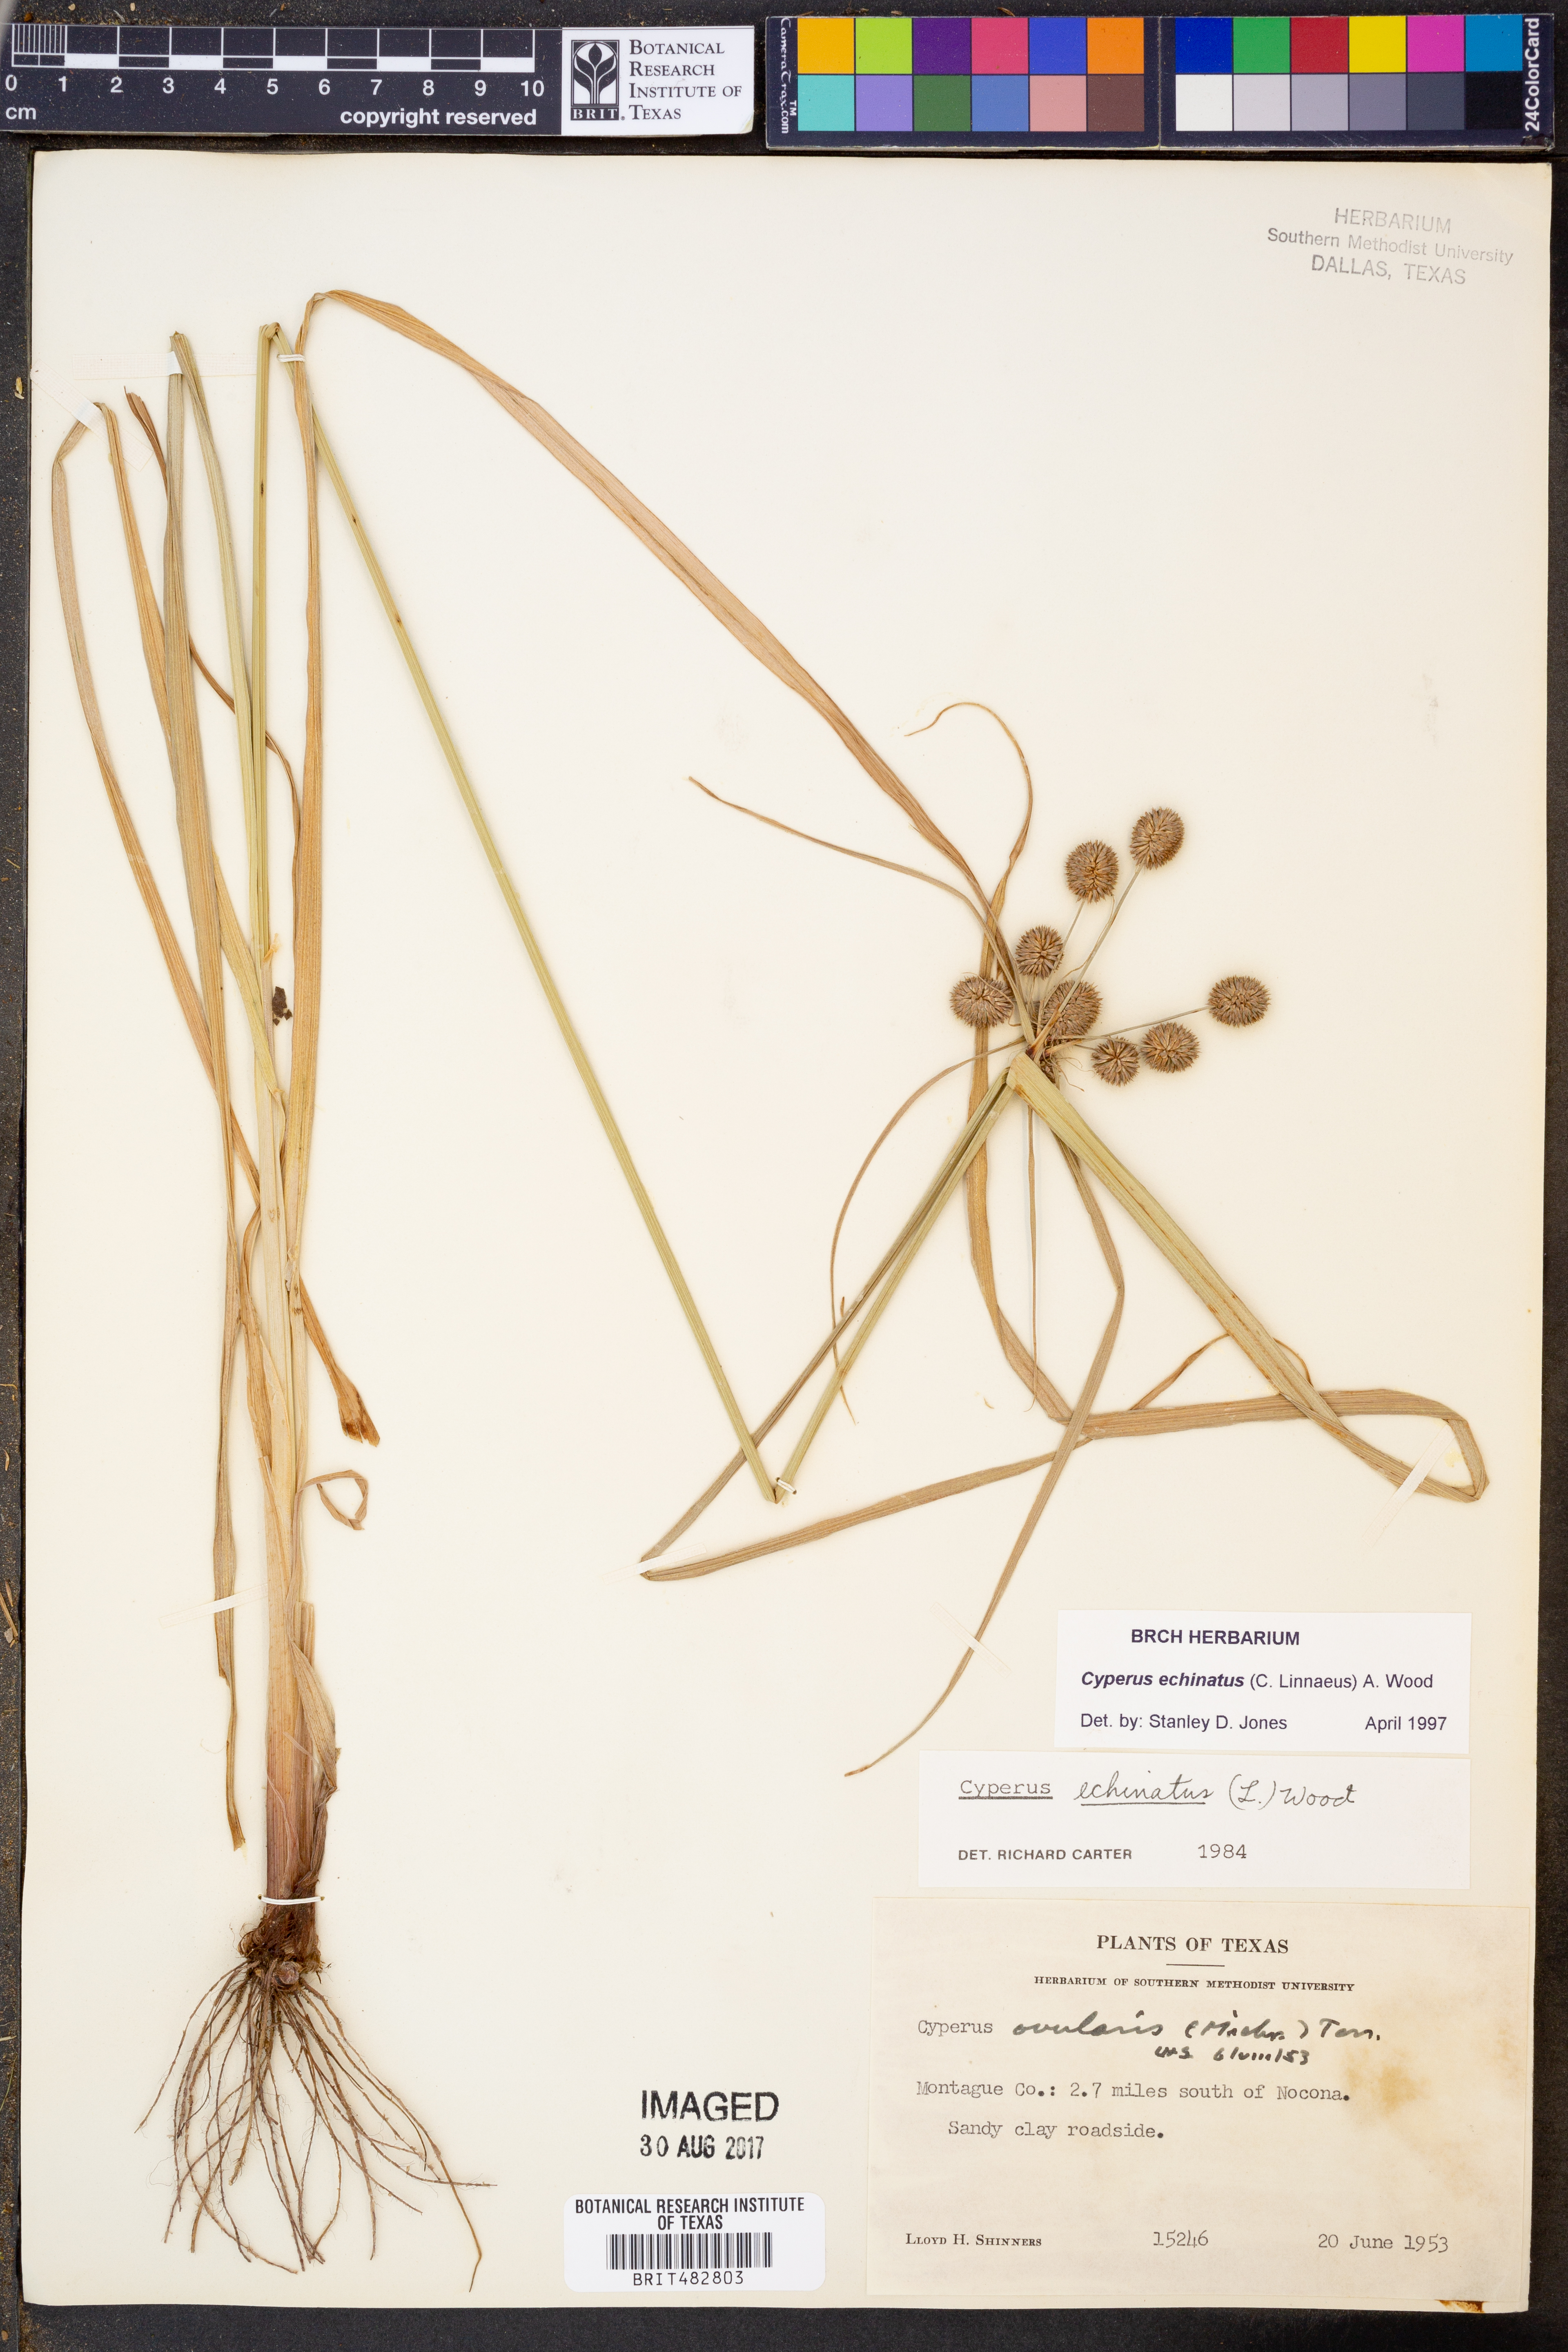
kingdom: Plantae
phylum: Tracheophyta
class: Liliopsida
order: Poales
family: Cyperaceae
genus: Cyperus
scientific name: Cyperus echinatus
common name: Teasel sedge
